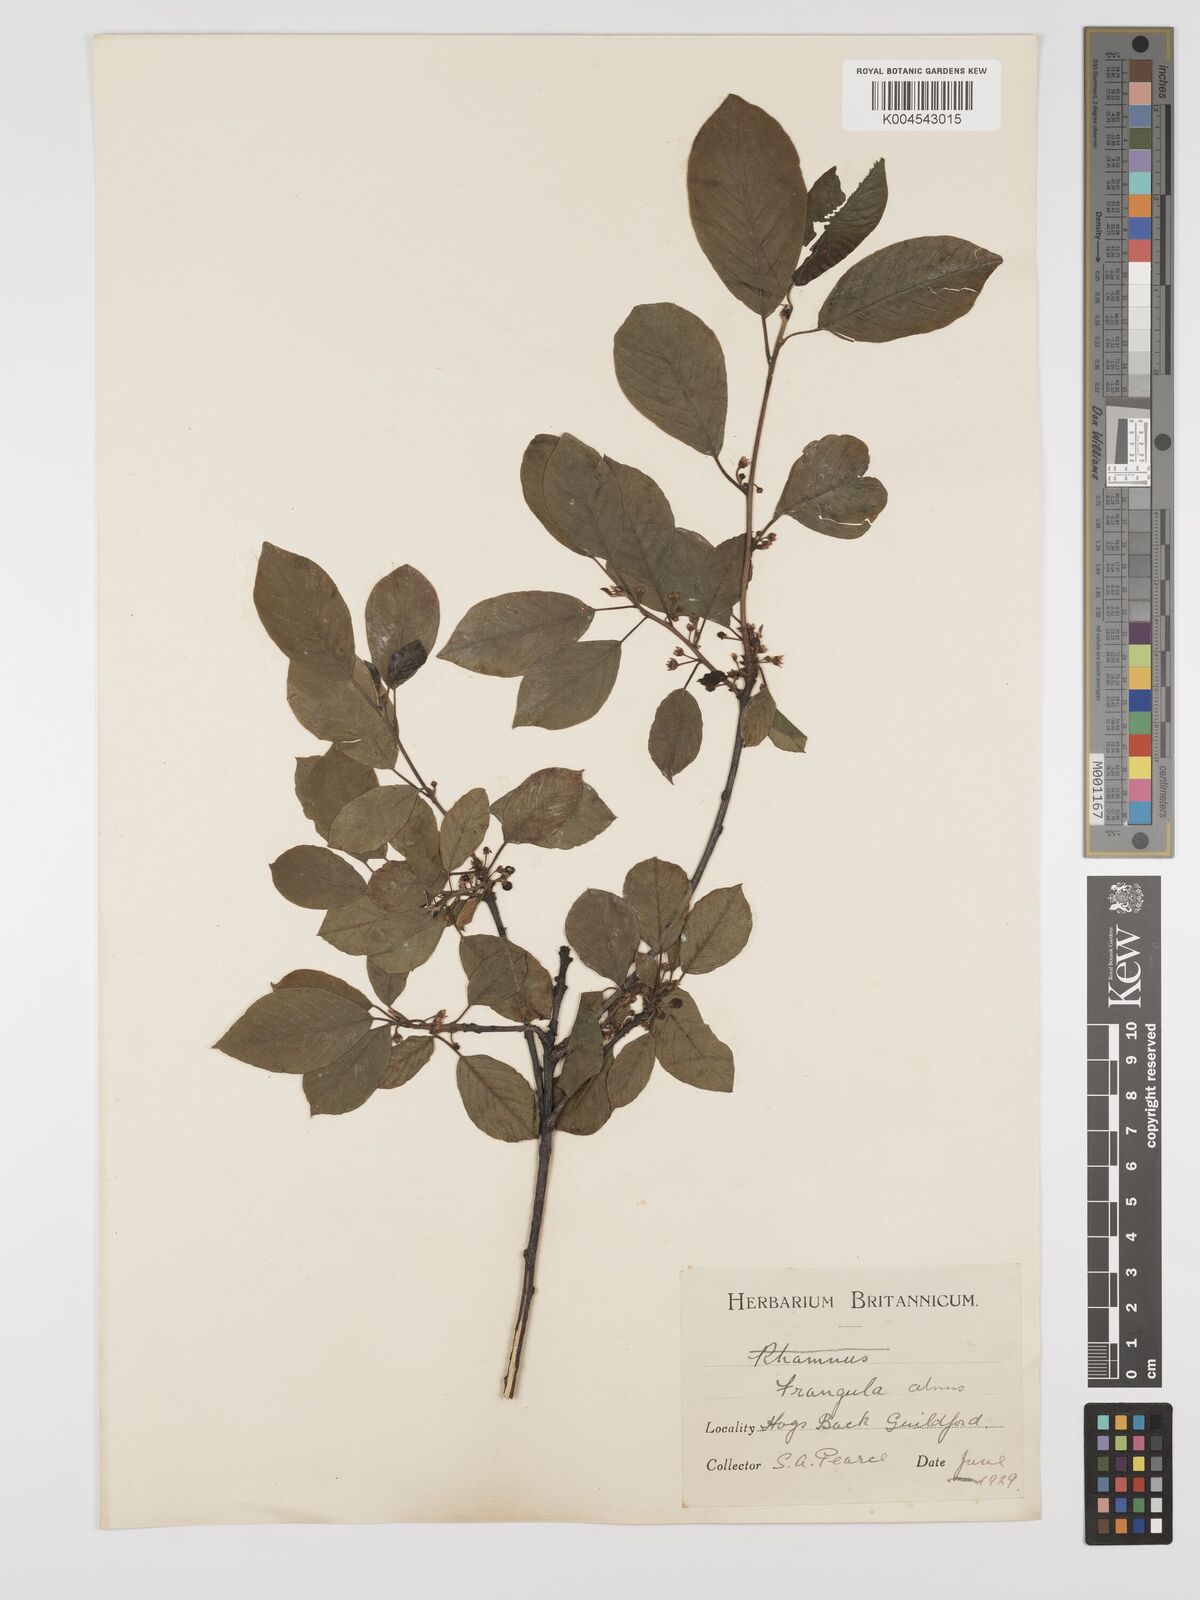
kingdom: Plantae
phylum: Tracheophyta
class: Magnoliopsida
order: Rosales
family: Rhamnaceae
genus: Frangula
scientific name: Frangula alnus
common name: Alder buckthorn
